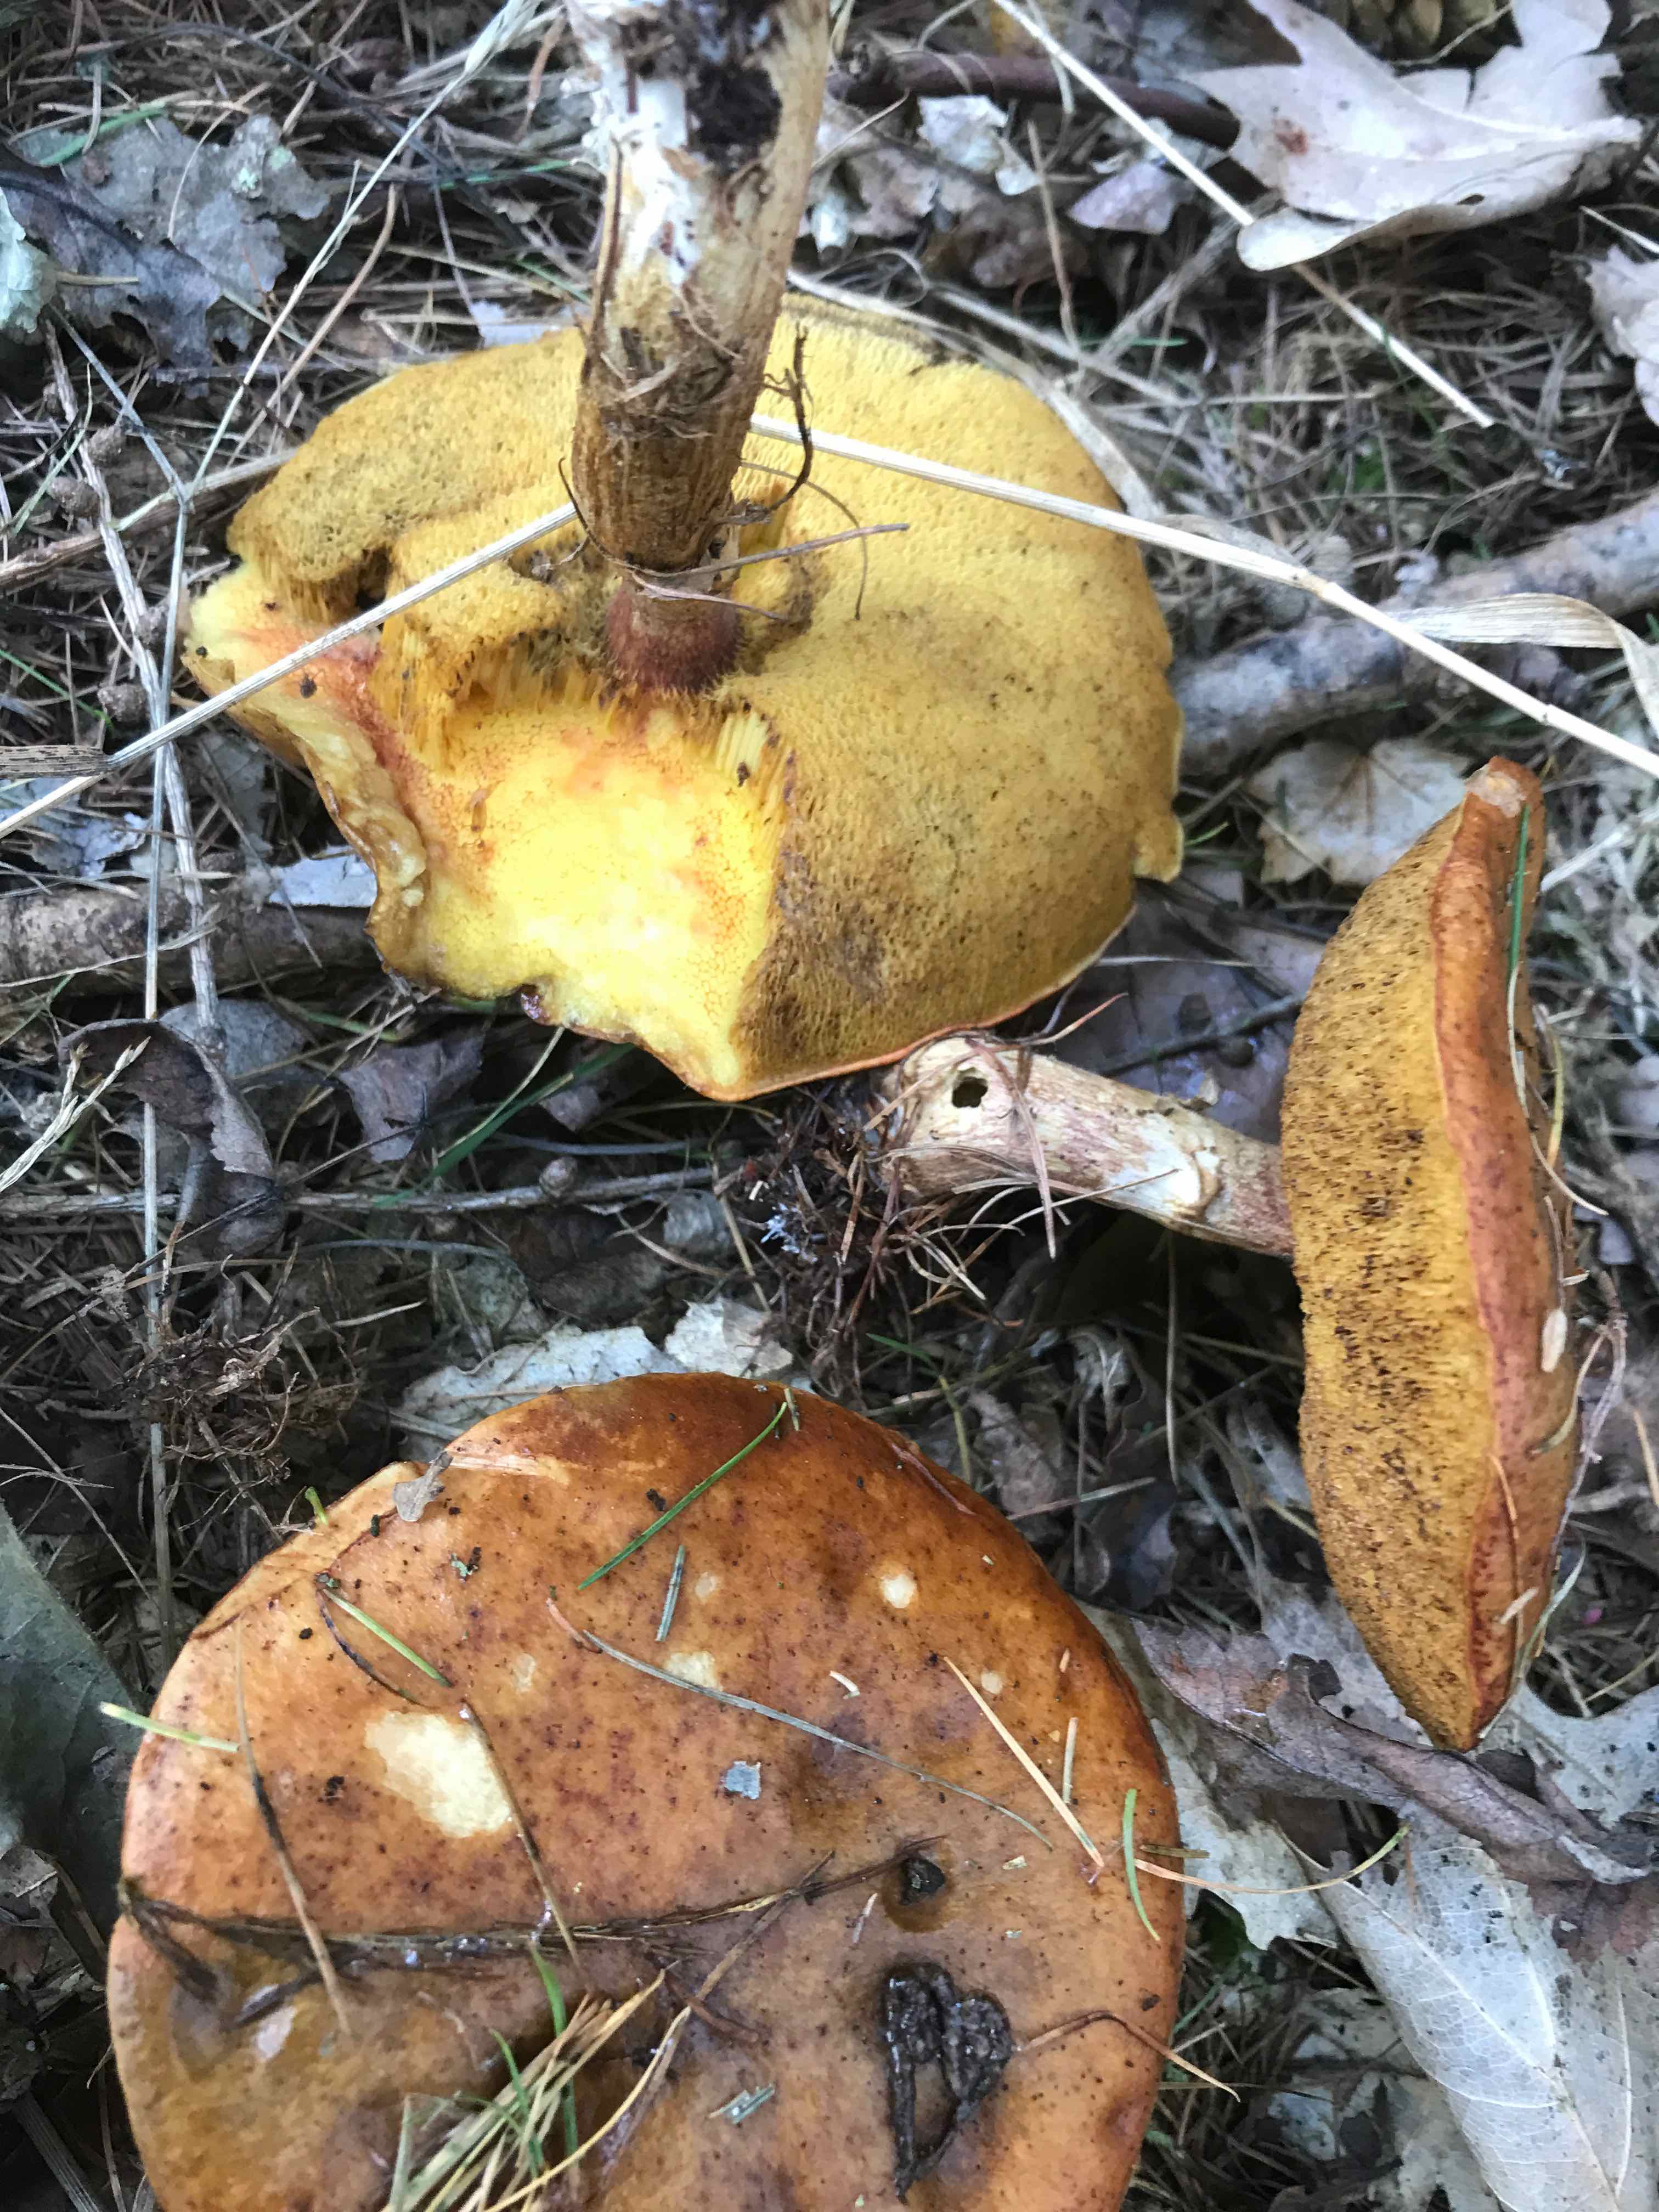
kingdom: Fungi
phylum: Basidiomycota
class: Agaricomycetes
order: Boletales
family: Suillaceae
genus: Suillus
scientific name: Suillus grevillei
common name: lærke-slimrørhat
